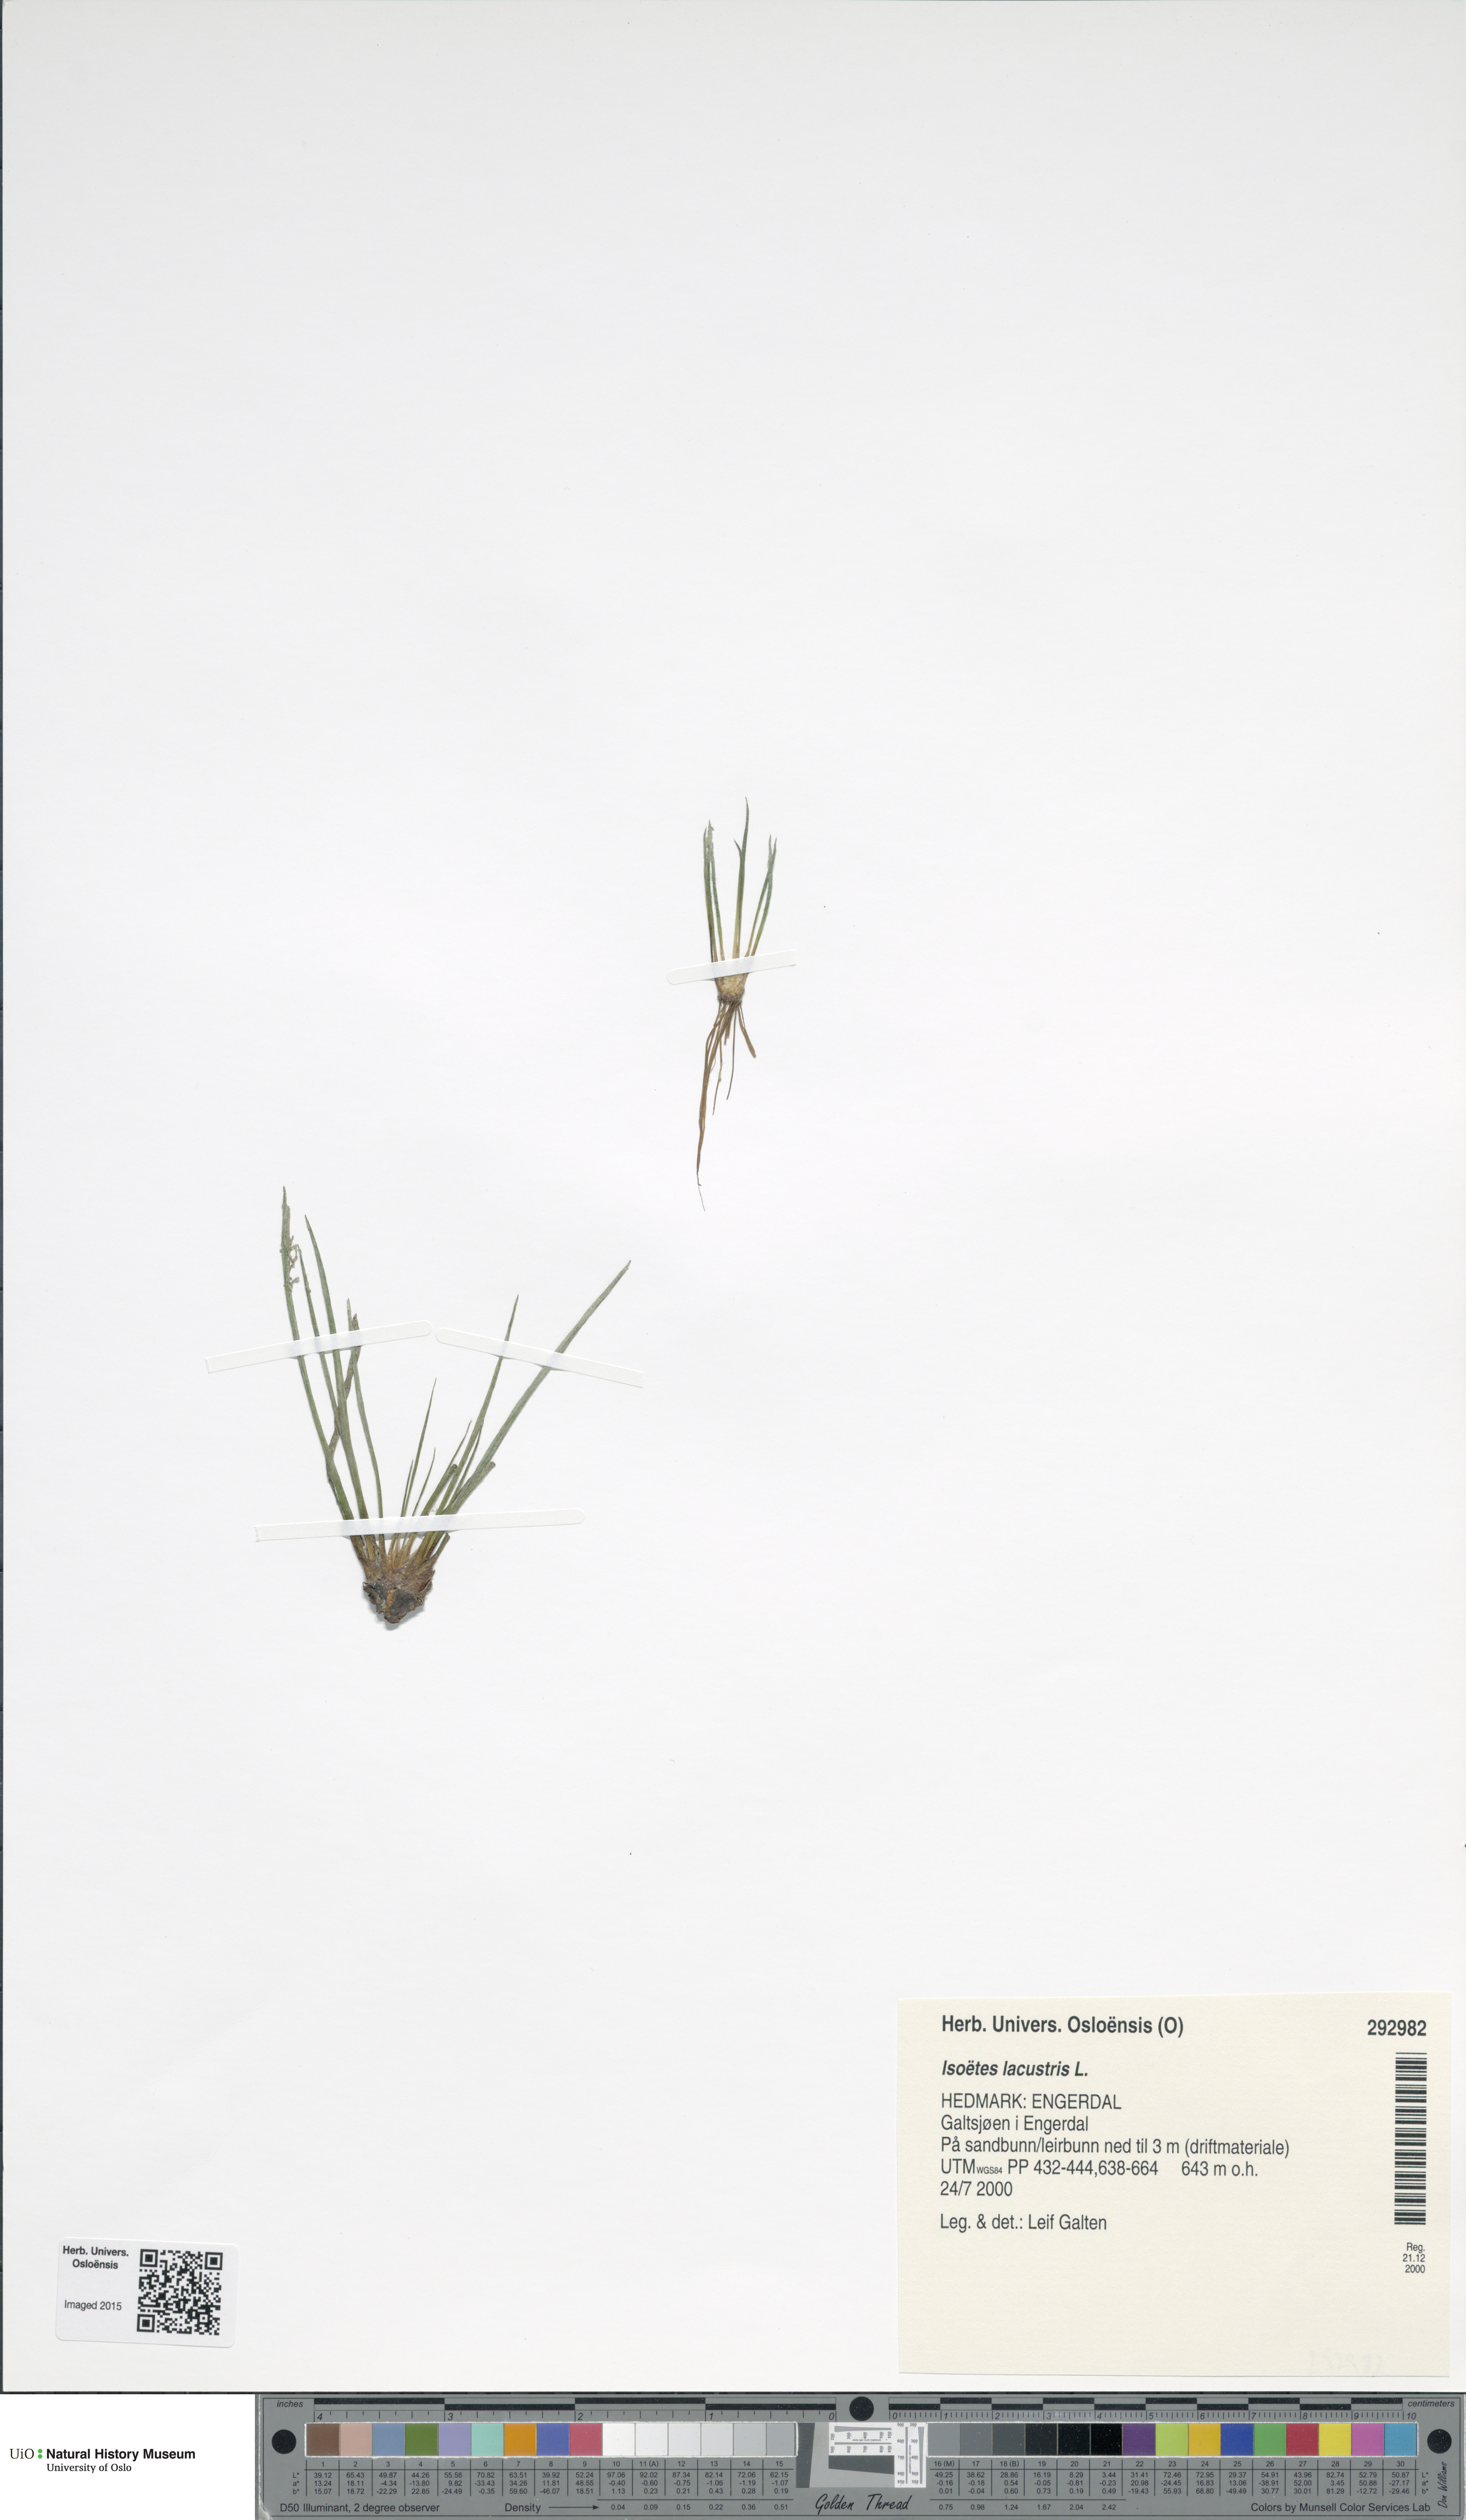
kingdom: Plantae
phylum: Tracheophyta
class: Lycopodiopsida
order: Isoetales
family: Isoetaceae
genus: Isoetes
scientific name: Isoetes lacustris
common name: Common quillwort
